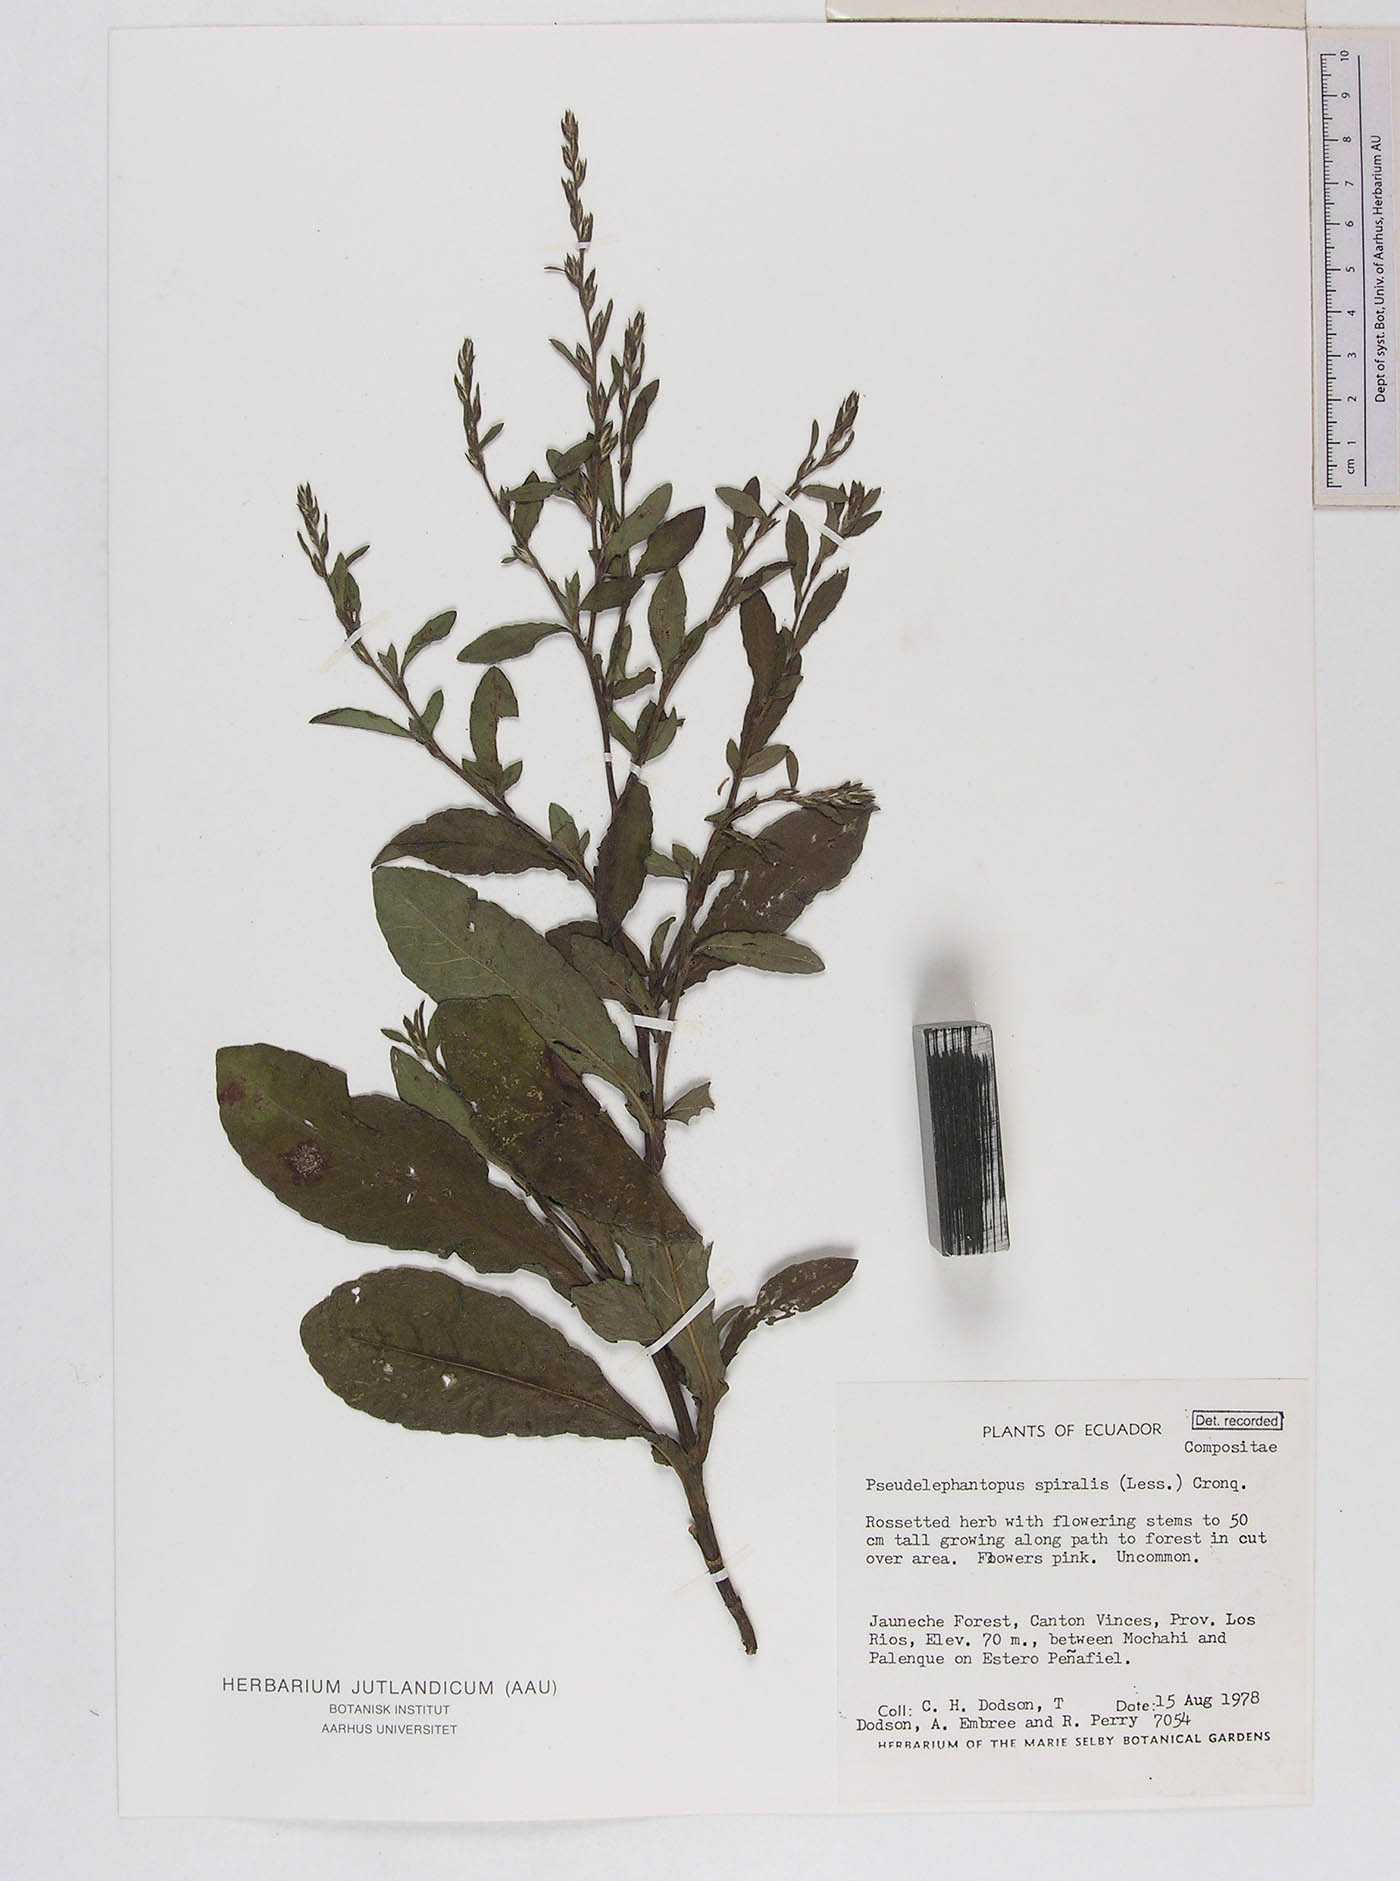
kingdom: Plantae
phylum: Tracheophyta
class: Magnoliopsida
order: Asterales
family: Asteraceae
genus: Pseudelephantopus
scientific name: Pseudelephantopus spiralis
